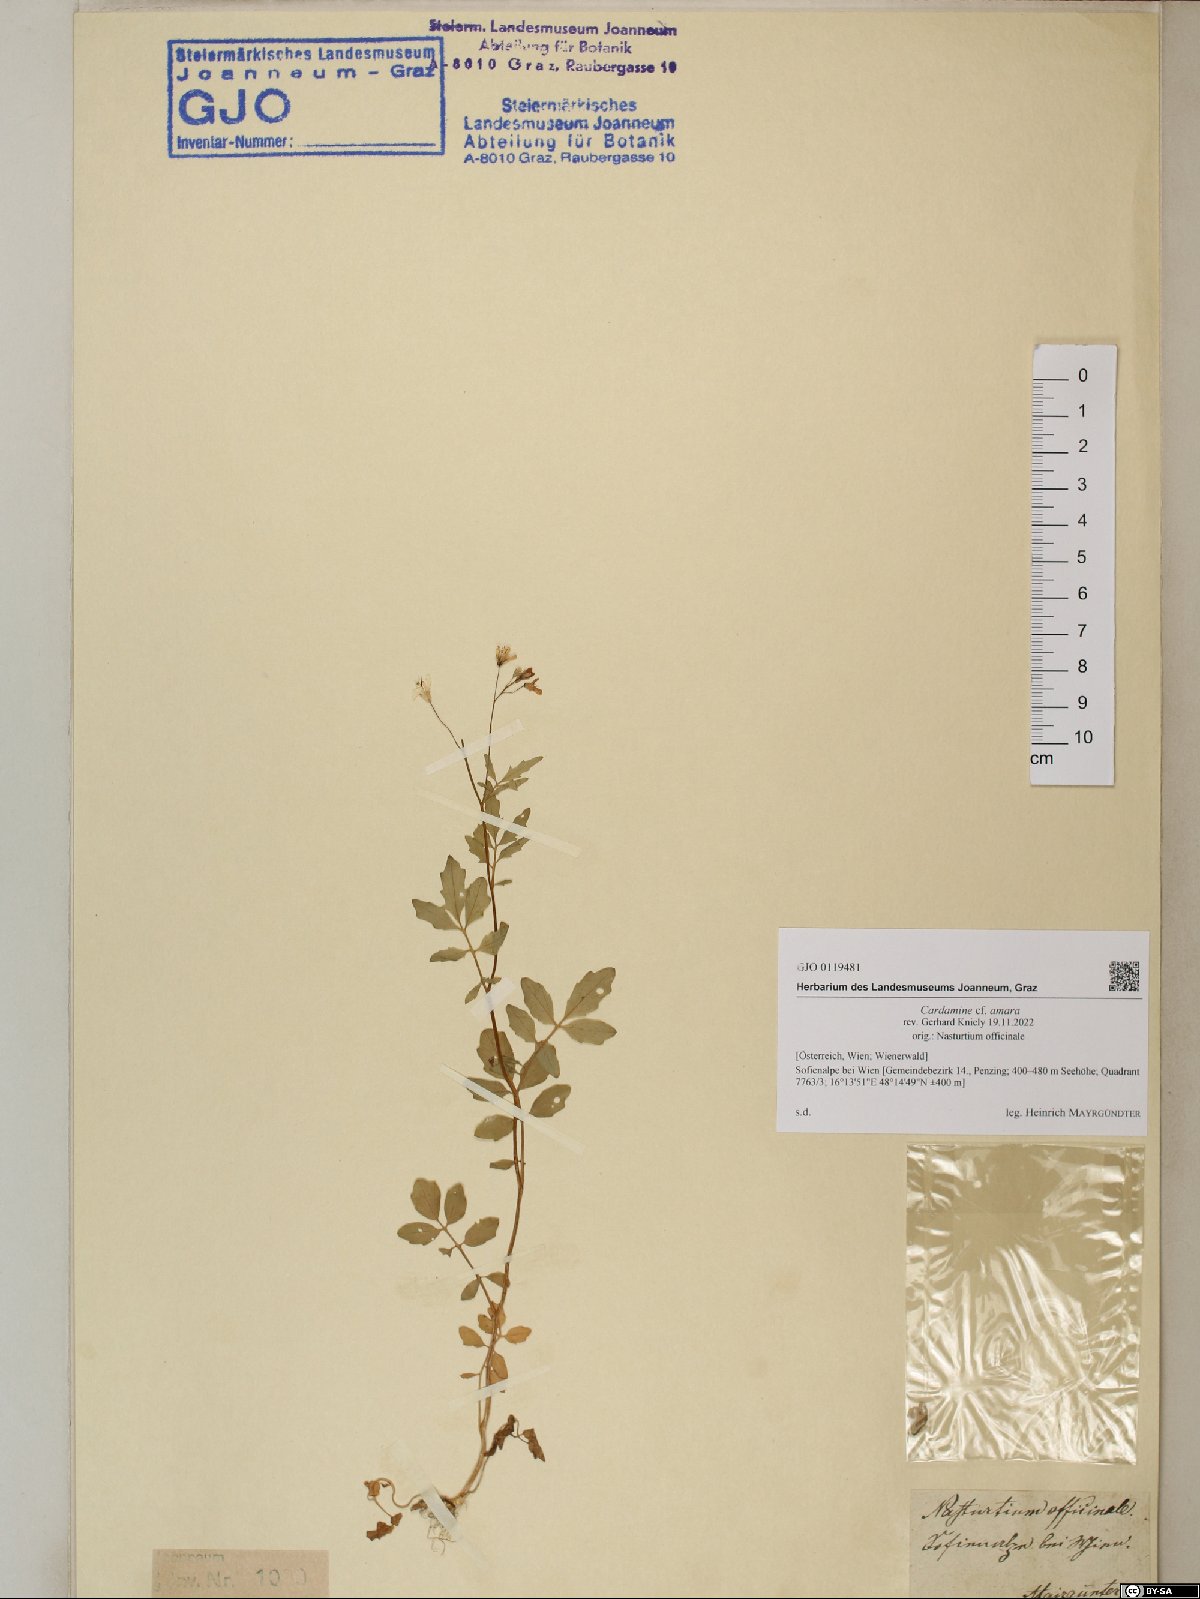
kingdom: Plantae
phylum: Tracheophyta
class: Magnoliopsida
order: Brassicales
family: Brassicaceae
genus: Cardamine
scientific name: Cardamine amara
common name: Large bitter-cress
